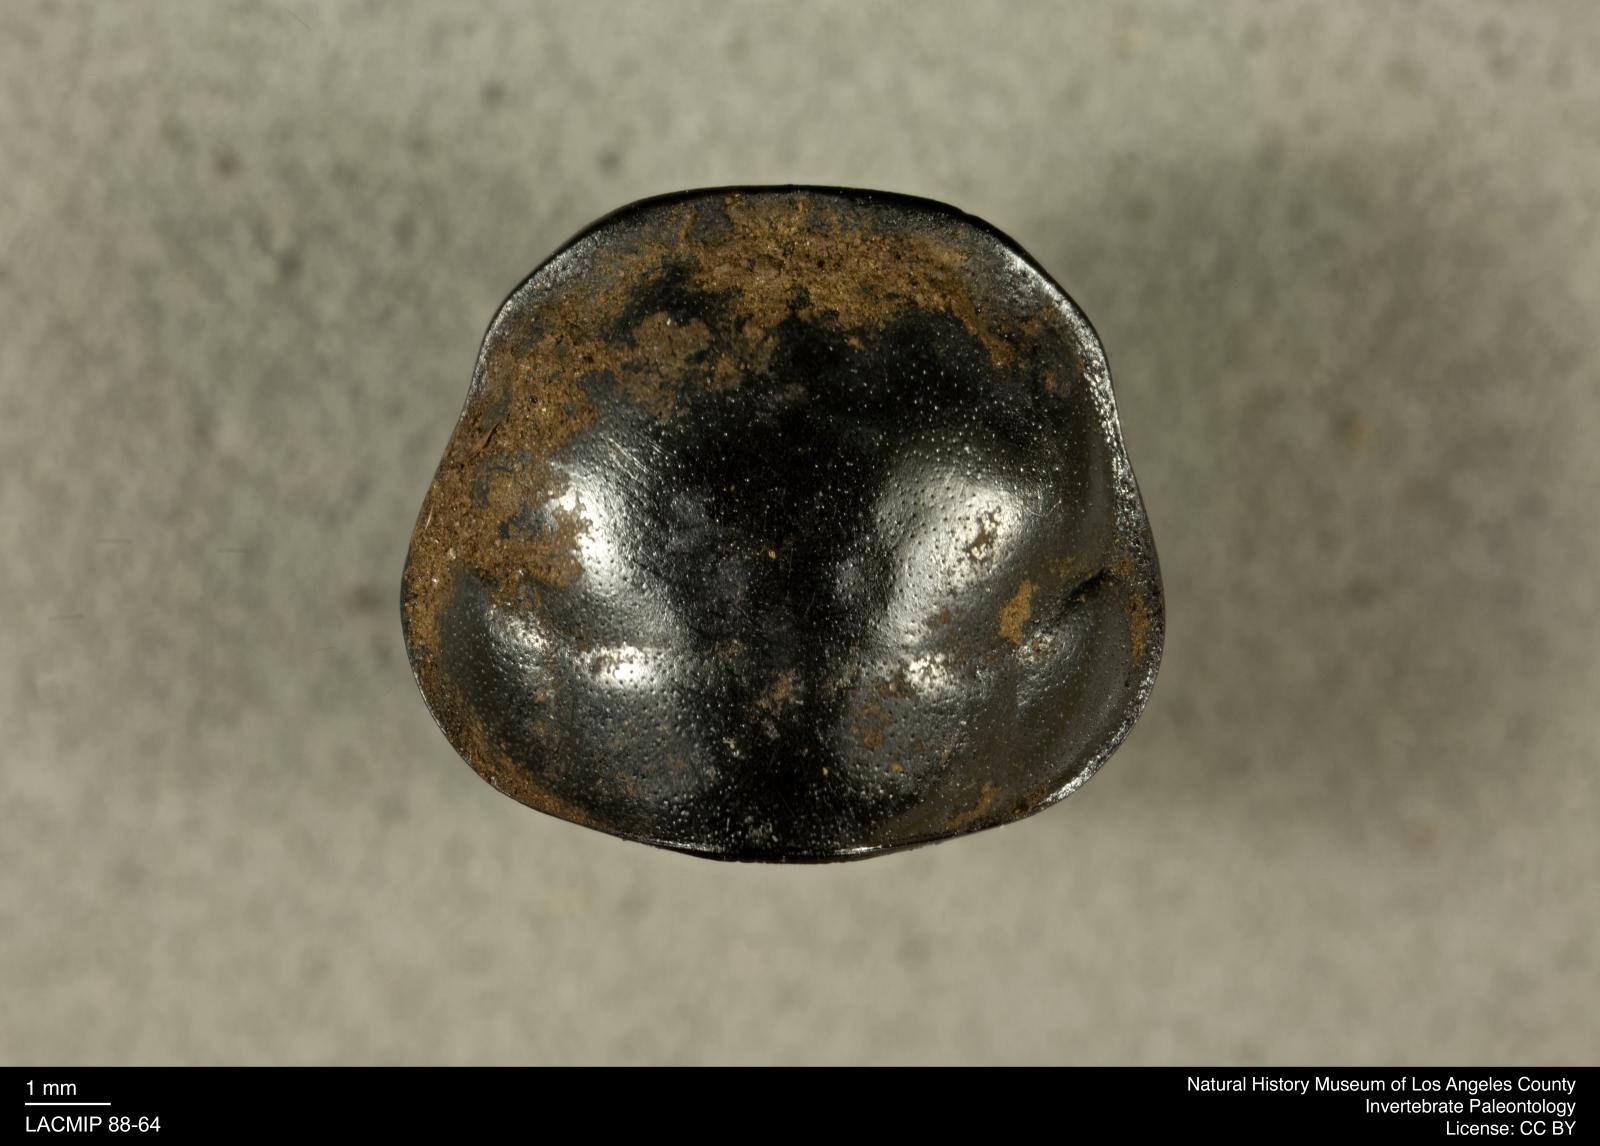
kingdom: Animalia
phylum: Arthropoda
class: Insecta
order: Coleoptera
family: Staphylinidae
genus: Nicrophorus
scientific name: Nicrophorus marginatus
